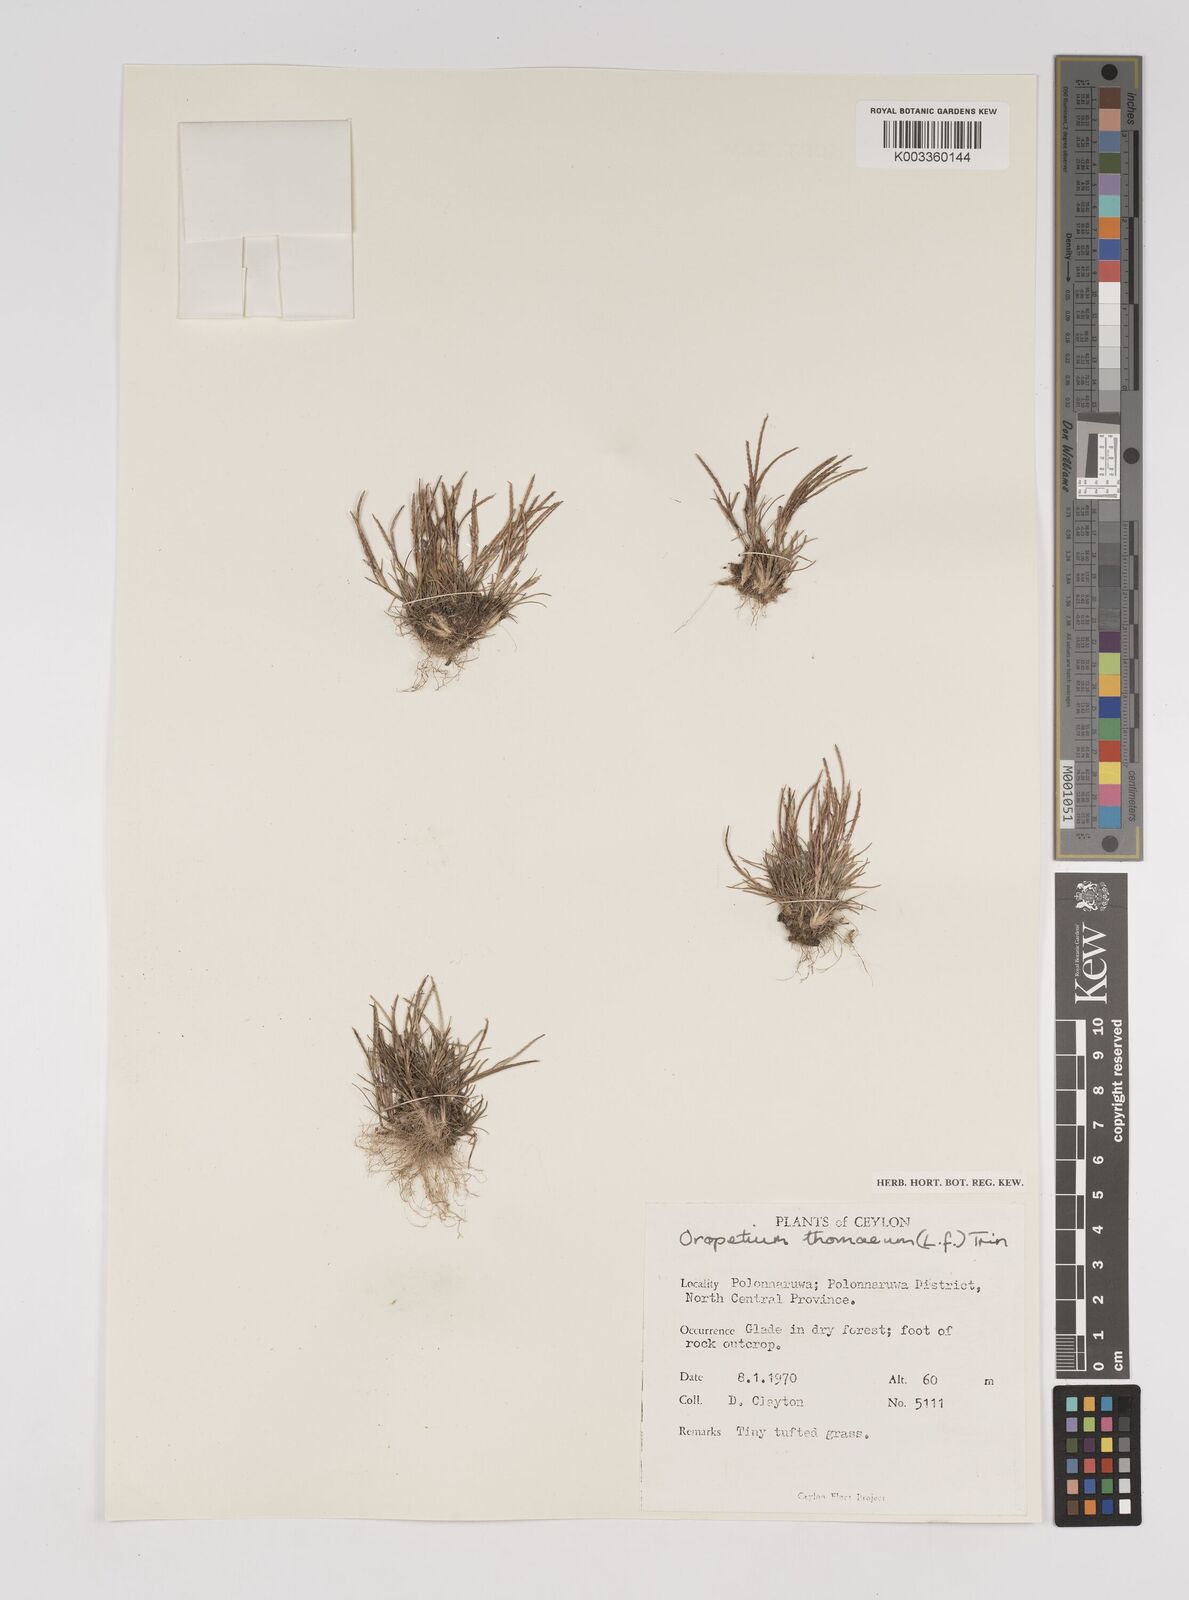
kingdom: Plantae
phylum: Tracheophyta
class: Liliopsida
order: Poales
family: Poaceae
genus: Oropetium
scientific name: Oropetium thomaeum
